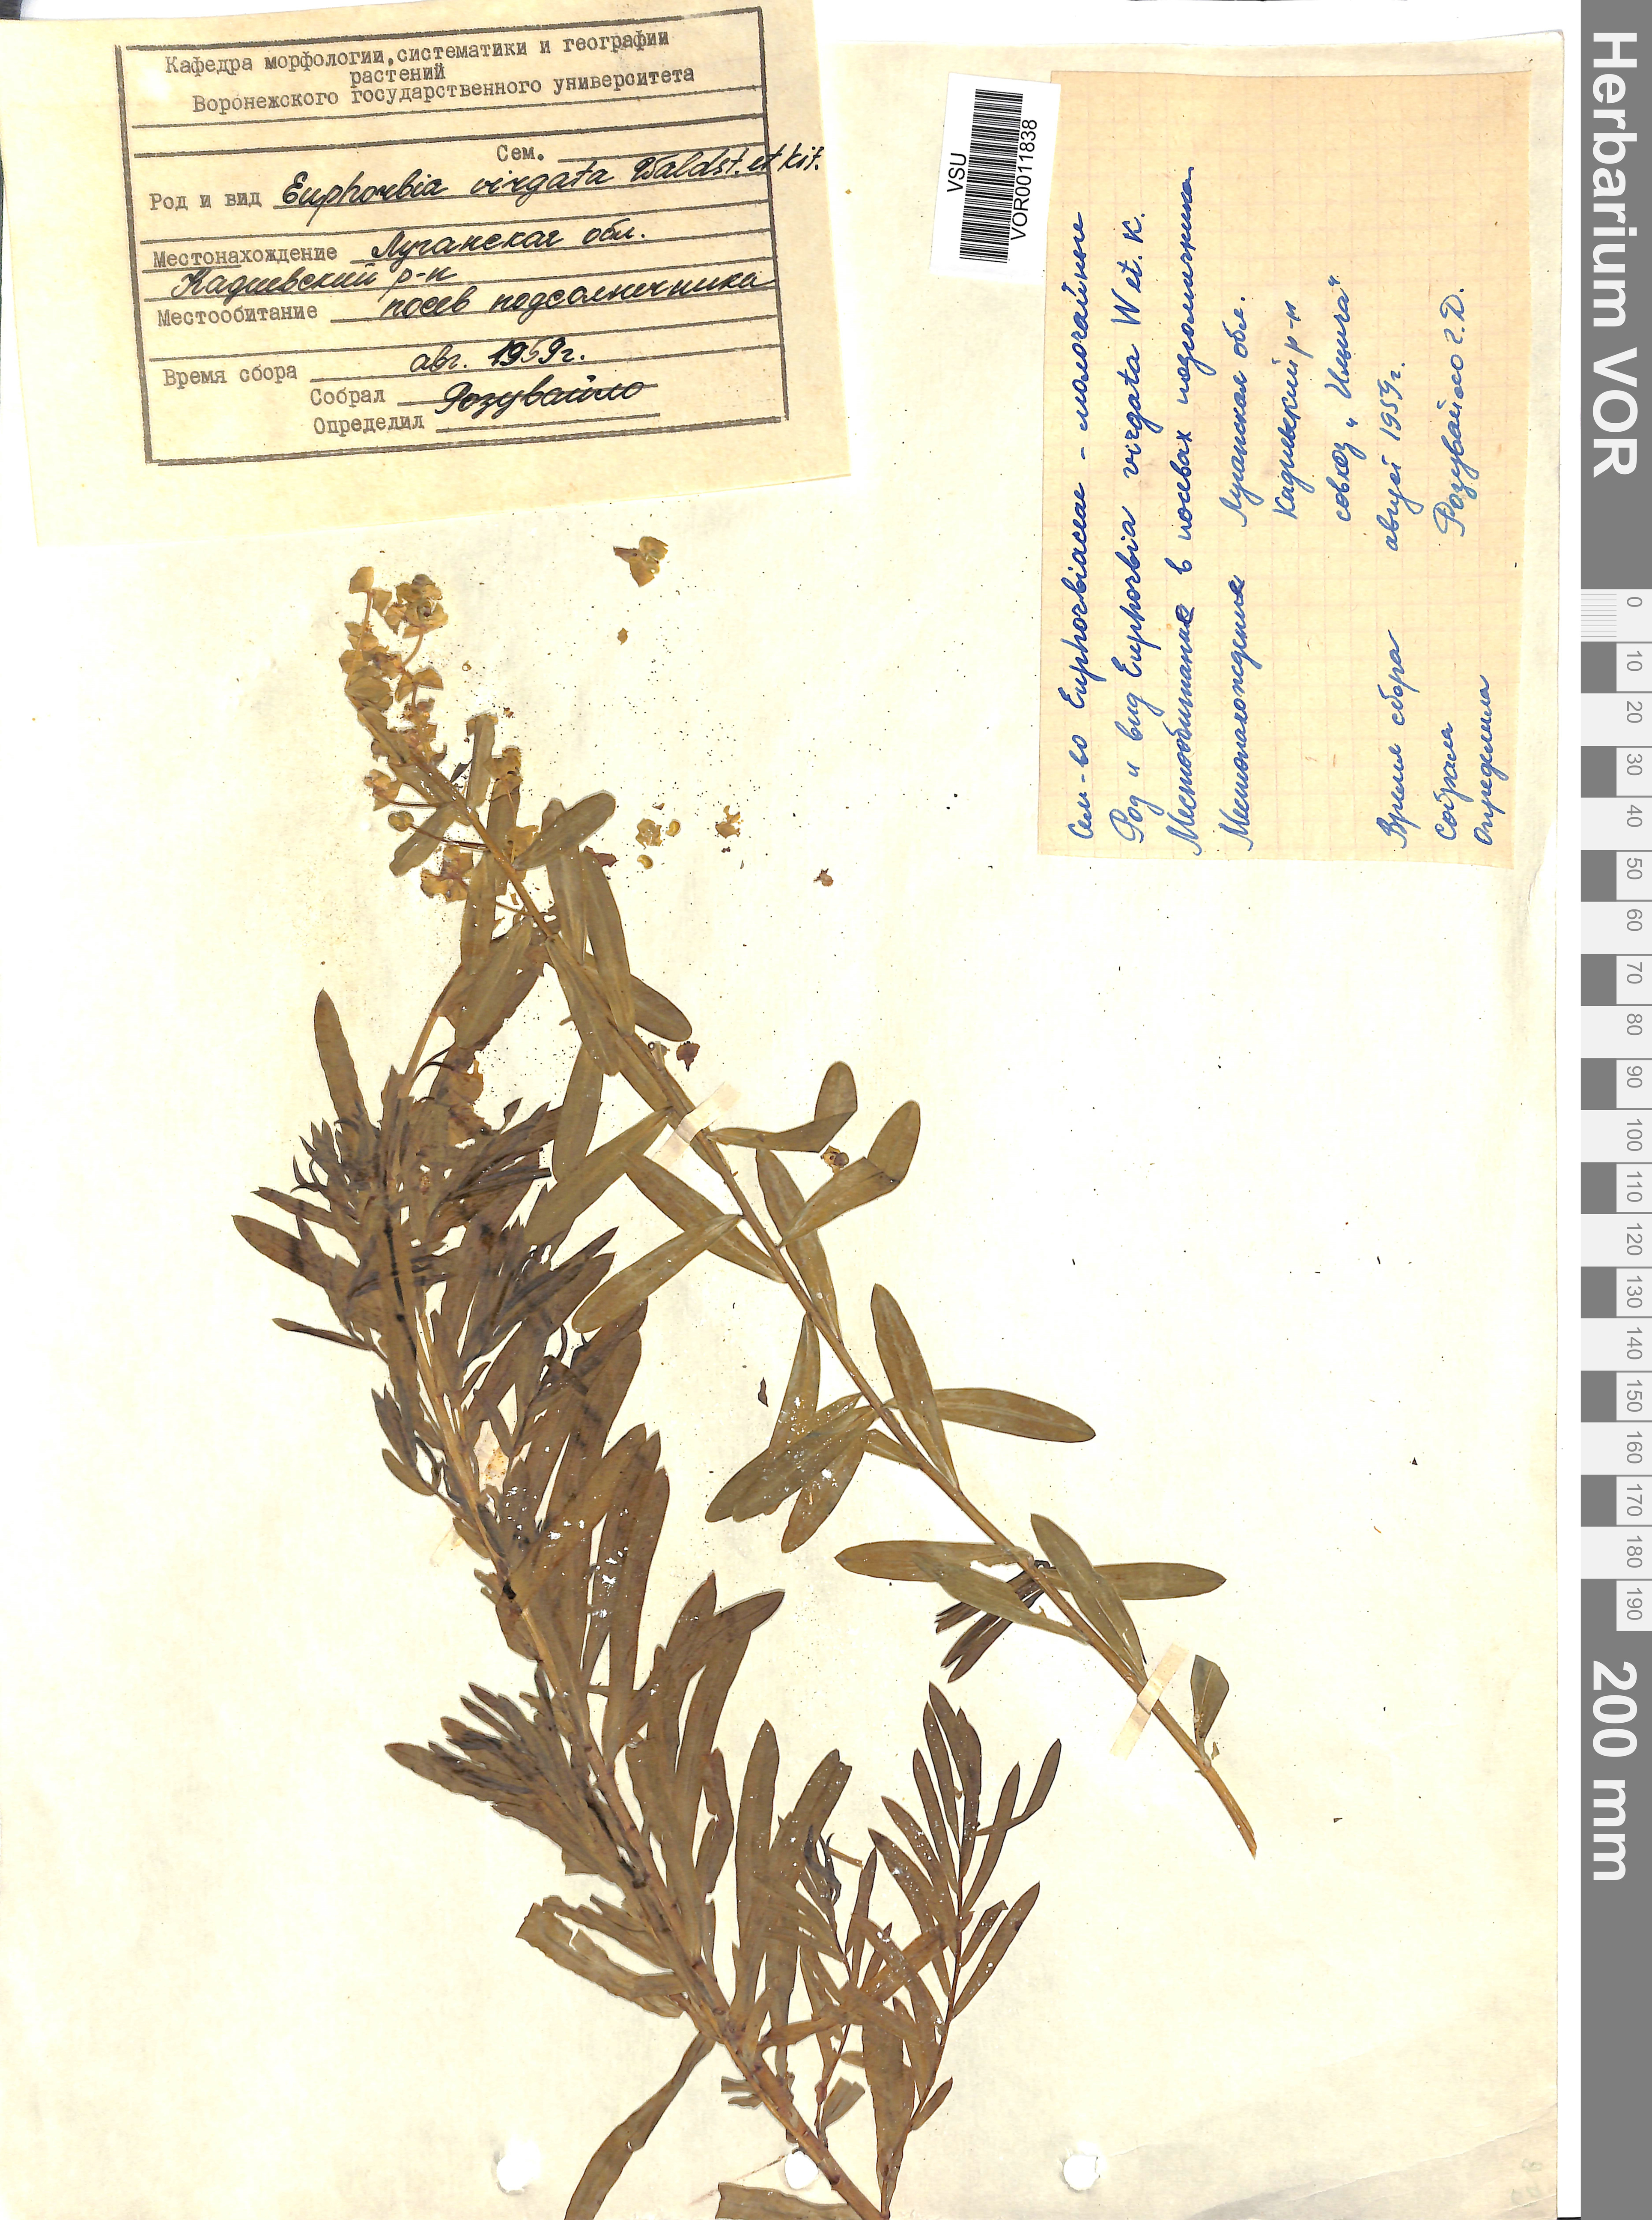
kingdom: Plantae
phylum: Tracheophyta
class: Magnoliopsida
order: Malpighiales
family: Euphorbiaceae
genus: Euphorbia
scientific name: Euphorbia virgata
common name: Leafy spurge
